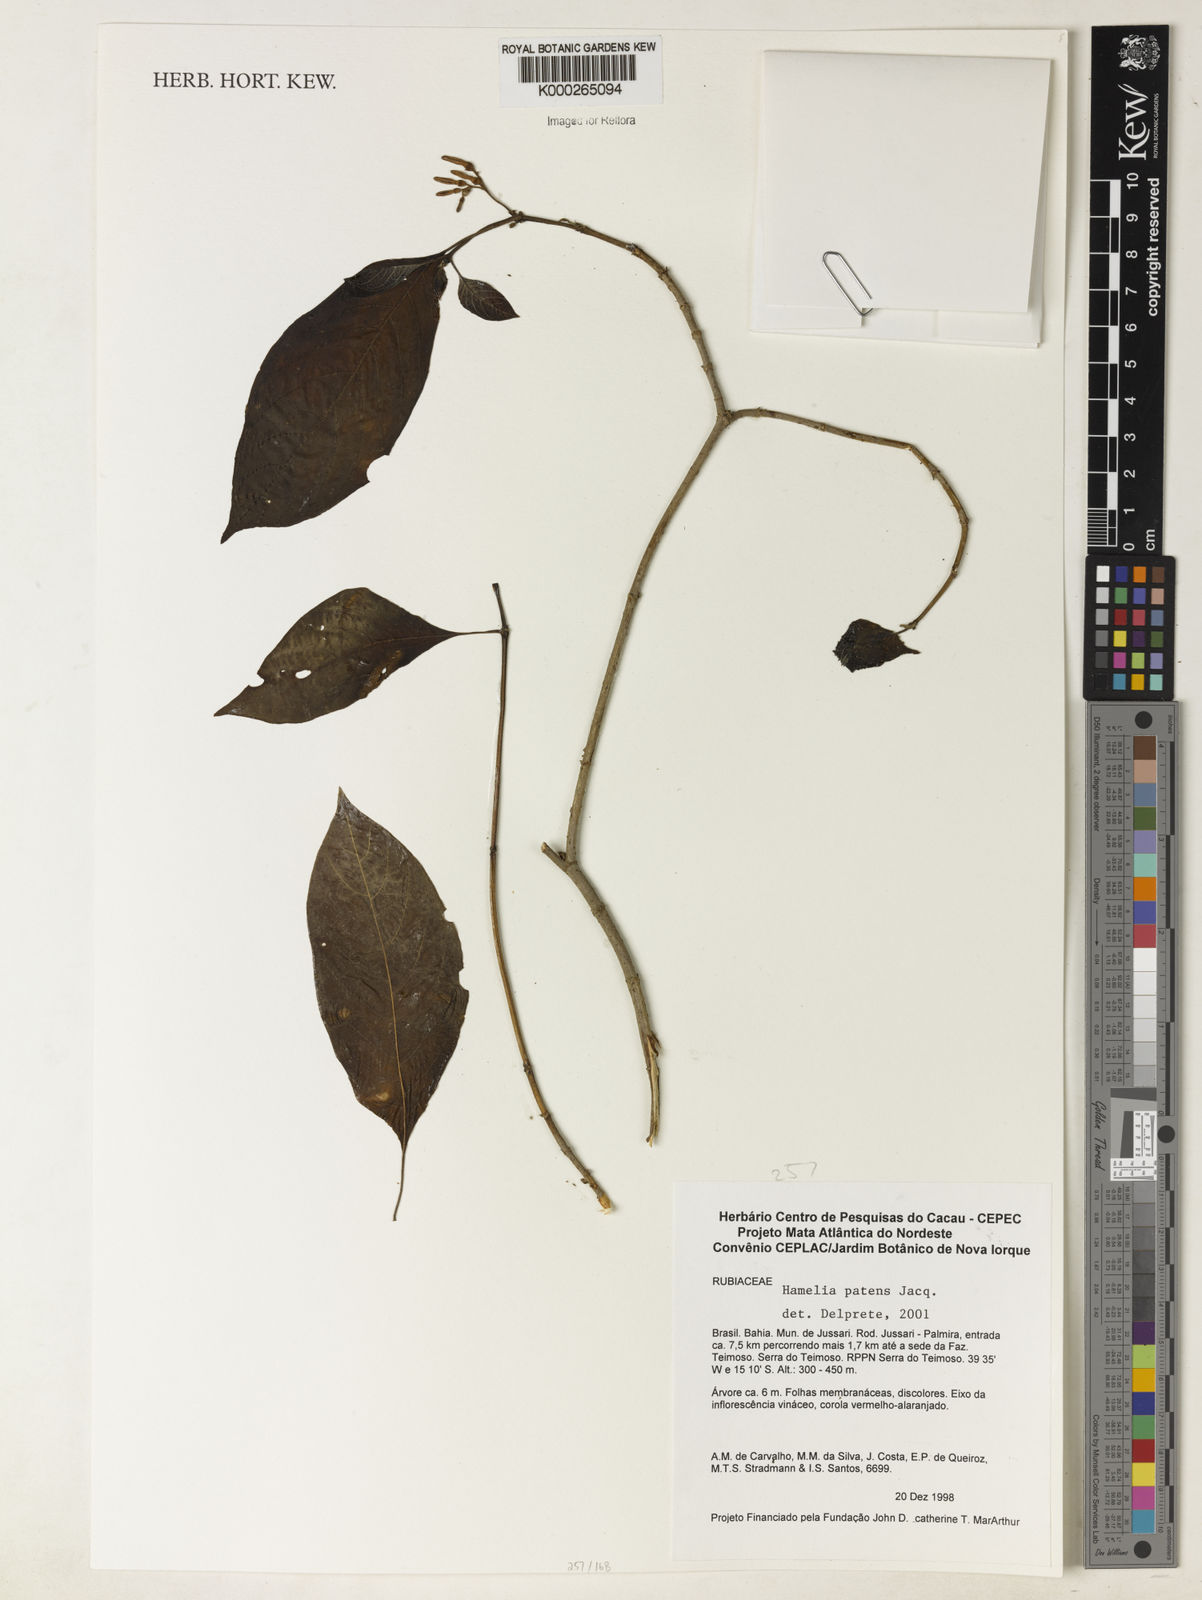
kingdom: Plantae
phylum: Tracheophyta
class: Magnoliopsida
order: Gentianales
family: Rubiaceae
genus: Hamelia
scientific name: Hamelia patens
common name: Redhead
